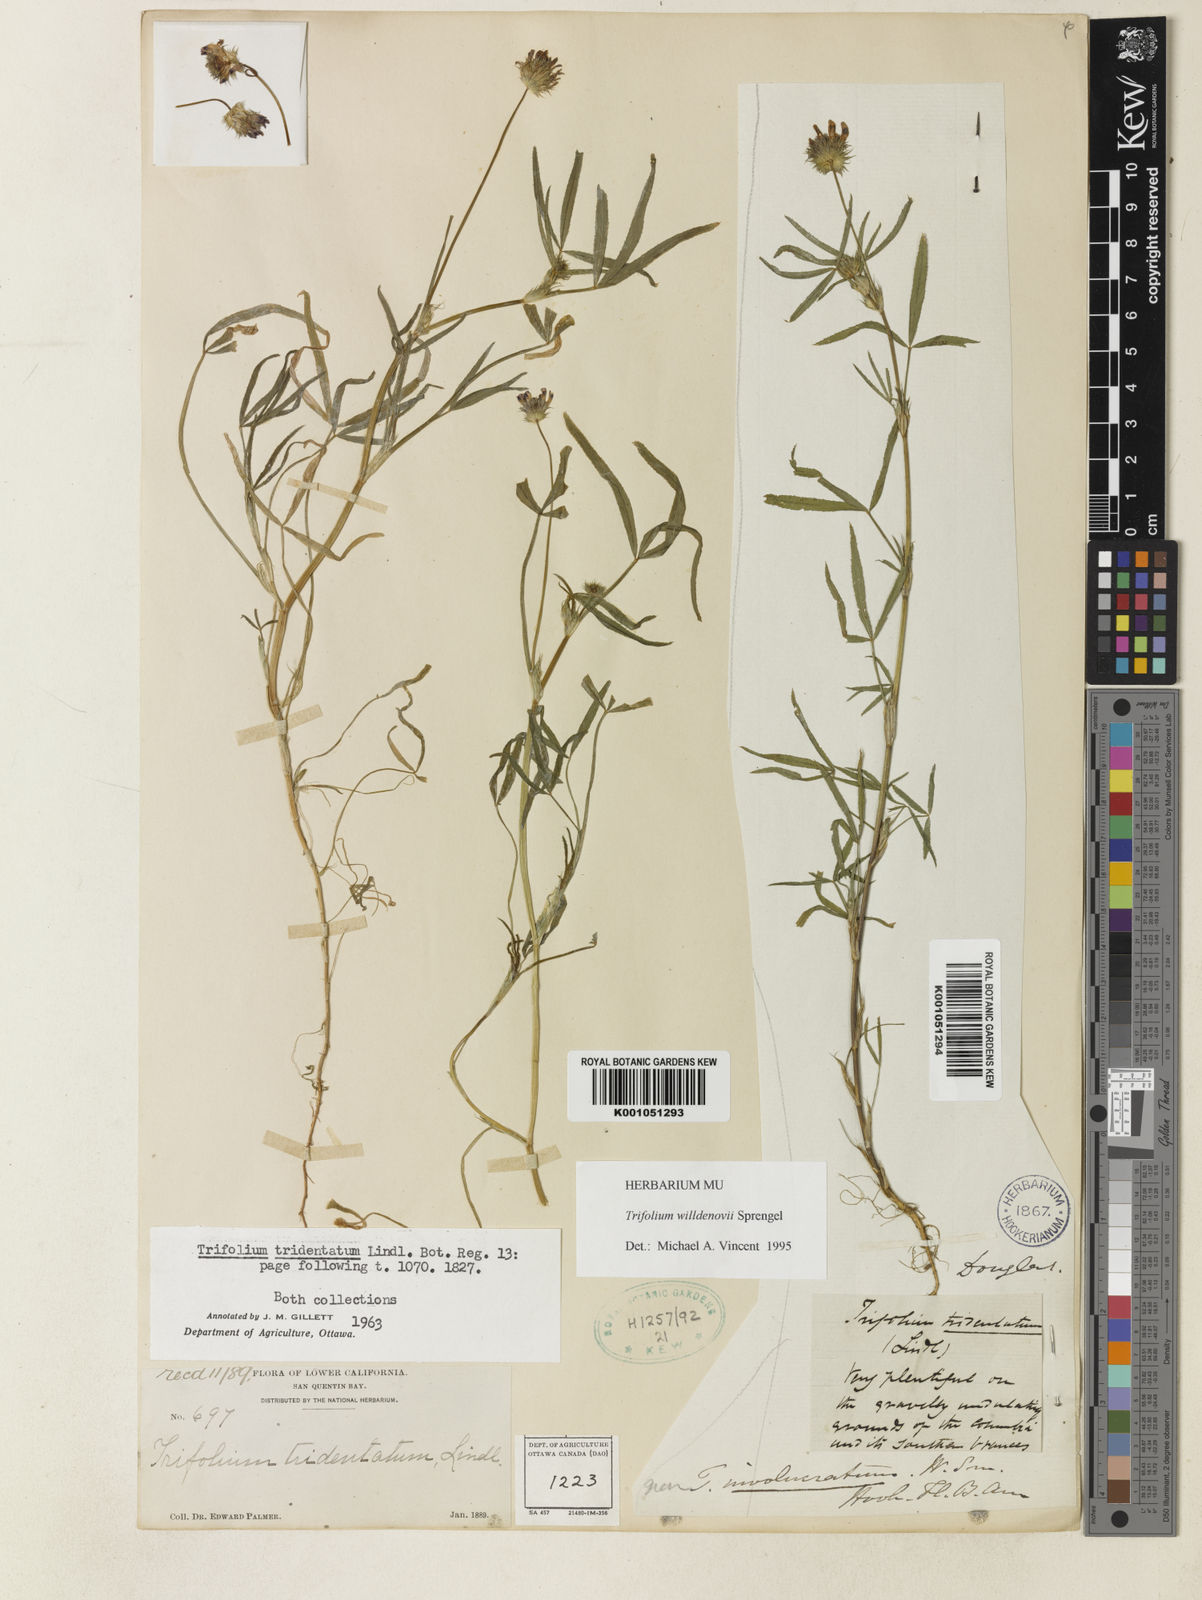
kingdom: Plantae
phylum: Tracheophyta
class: Magnoliopsida
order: Fabales
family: Fabaceae
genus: Trifolium
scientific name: Trifolium willdenovii
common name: Tomcat clover
